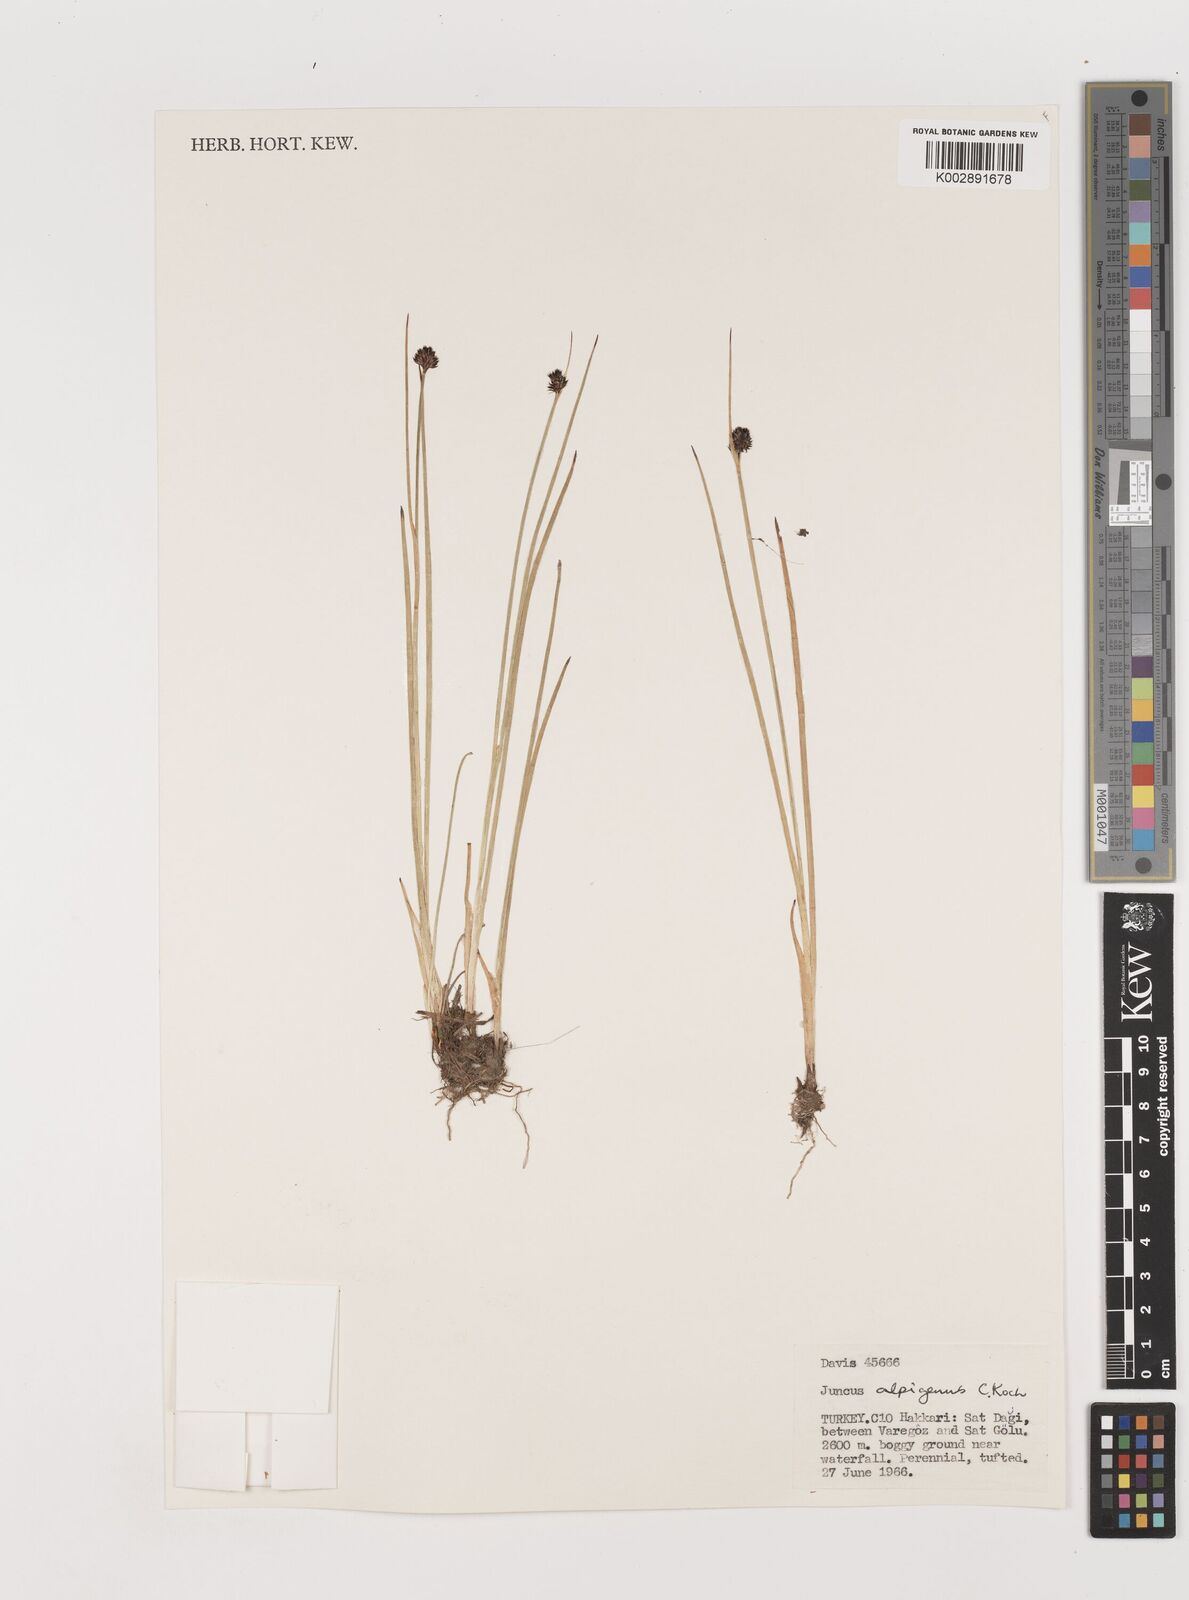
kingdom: Plantae
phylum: Tracheophyta
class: Liliopsida
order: Poales
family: Juncaceae
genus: Juncus
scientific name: Juncus alpigenus
